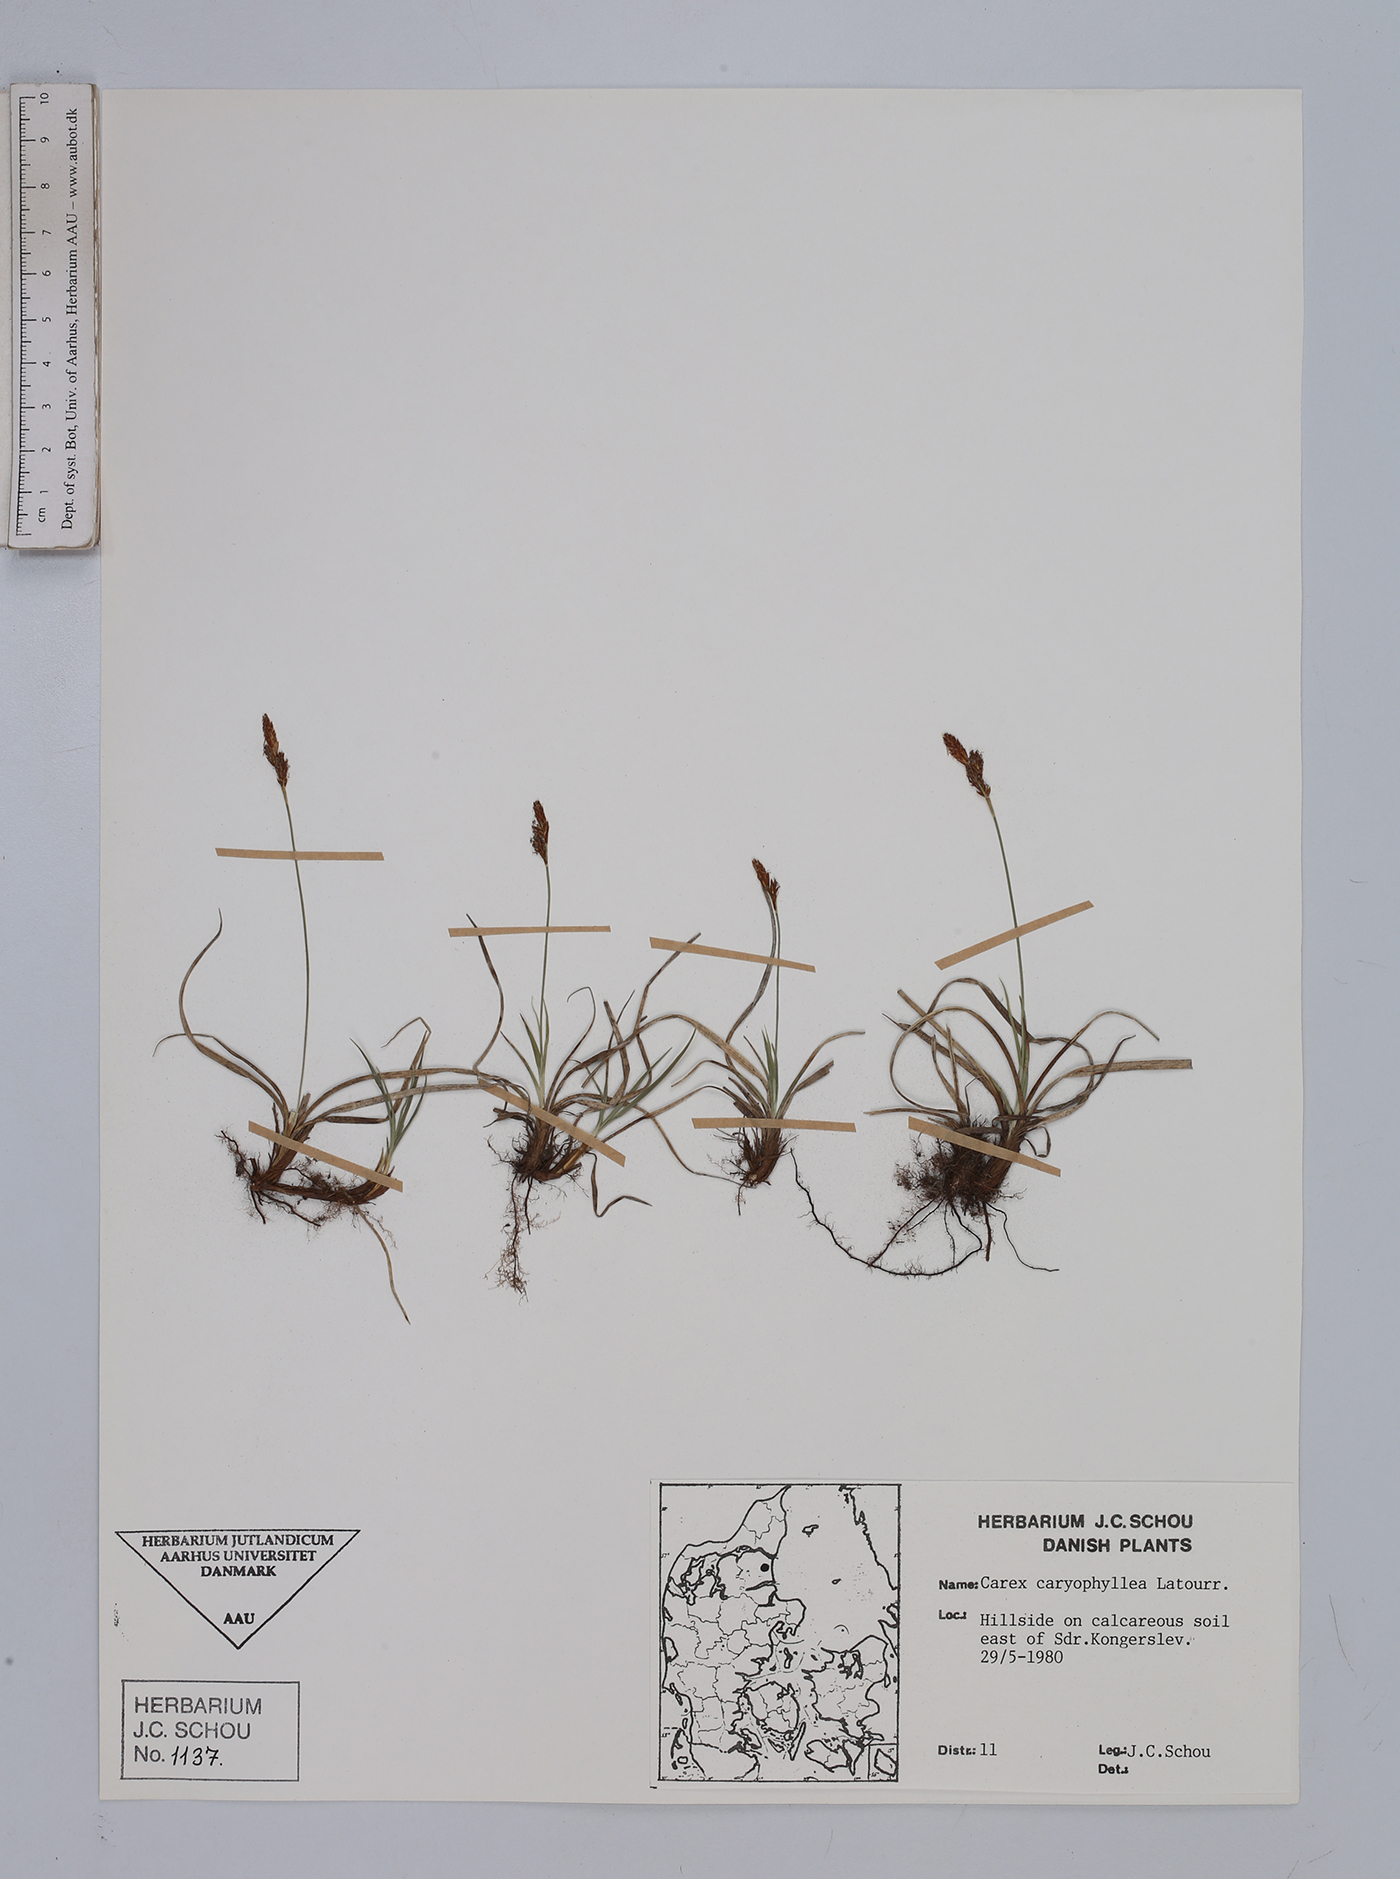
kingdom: Plantae
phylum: Tracheophyta
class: Liliopsida
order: Poales
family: Cyperaceae
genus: Carex
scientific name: Carex caryophyllea
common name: Spring sedge
